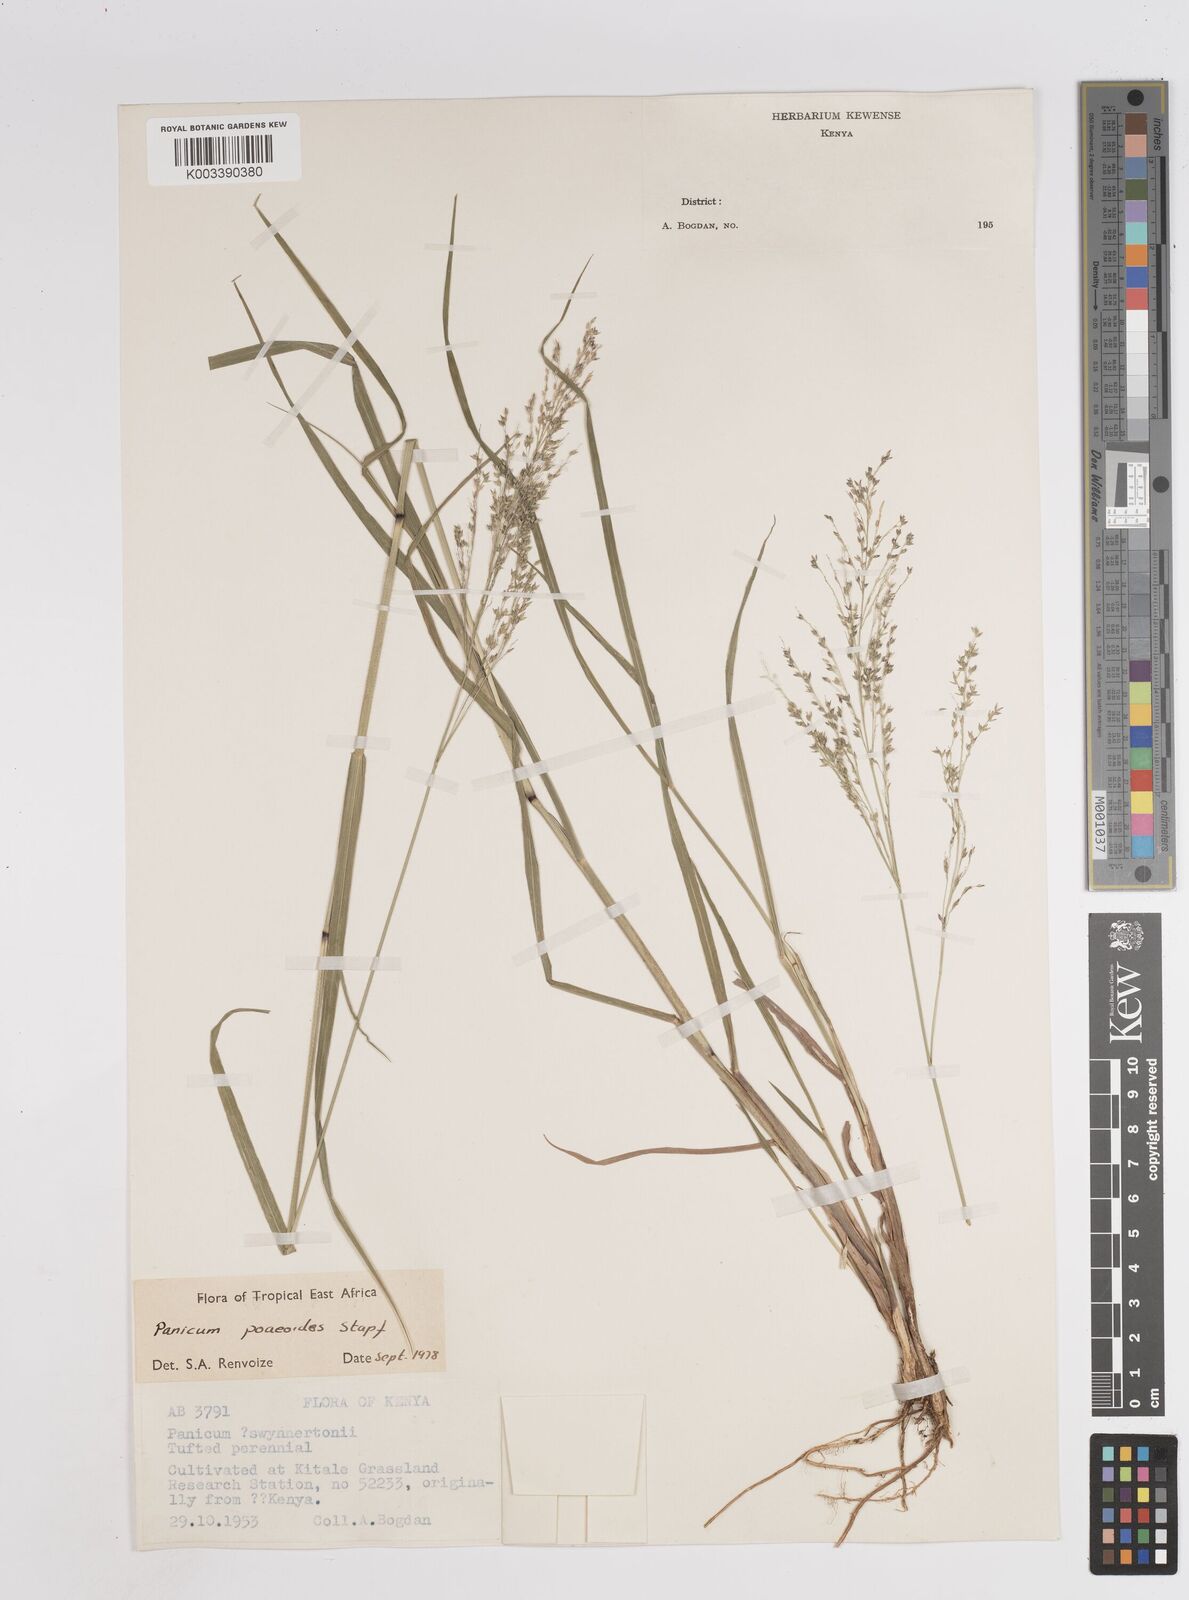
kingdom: Plantae
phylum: Tracheophyta
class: Liliopsida
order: Poales
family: Poaceae
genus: Panicum
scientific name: Panicum
